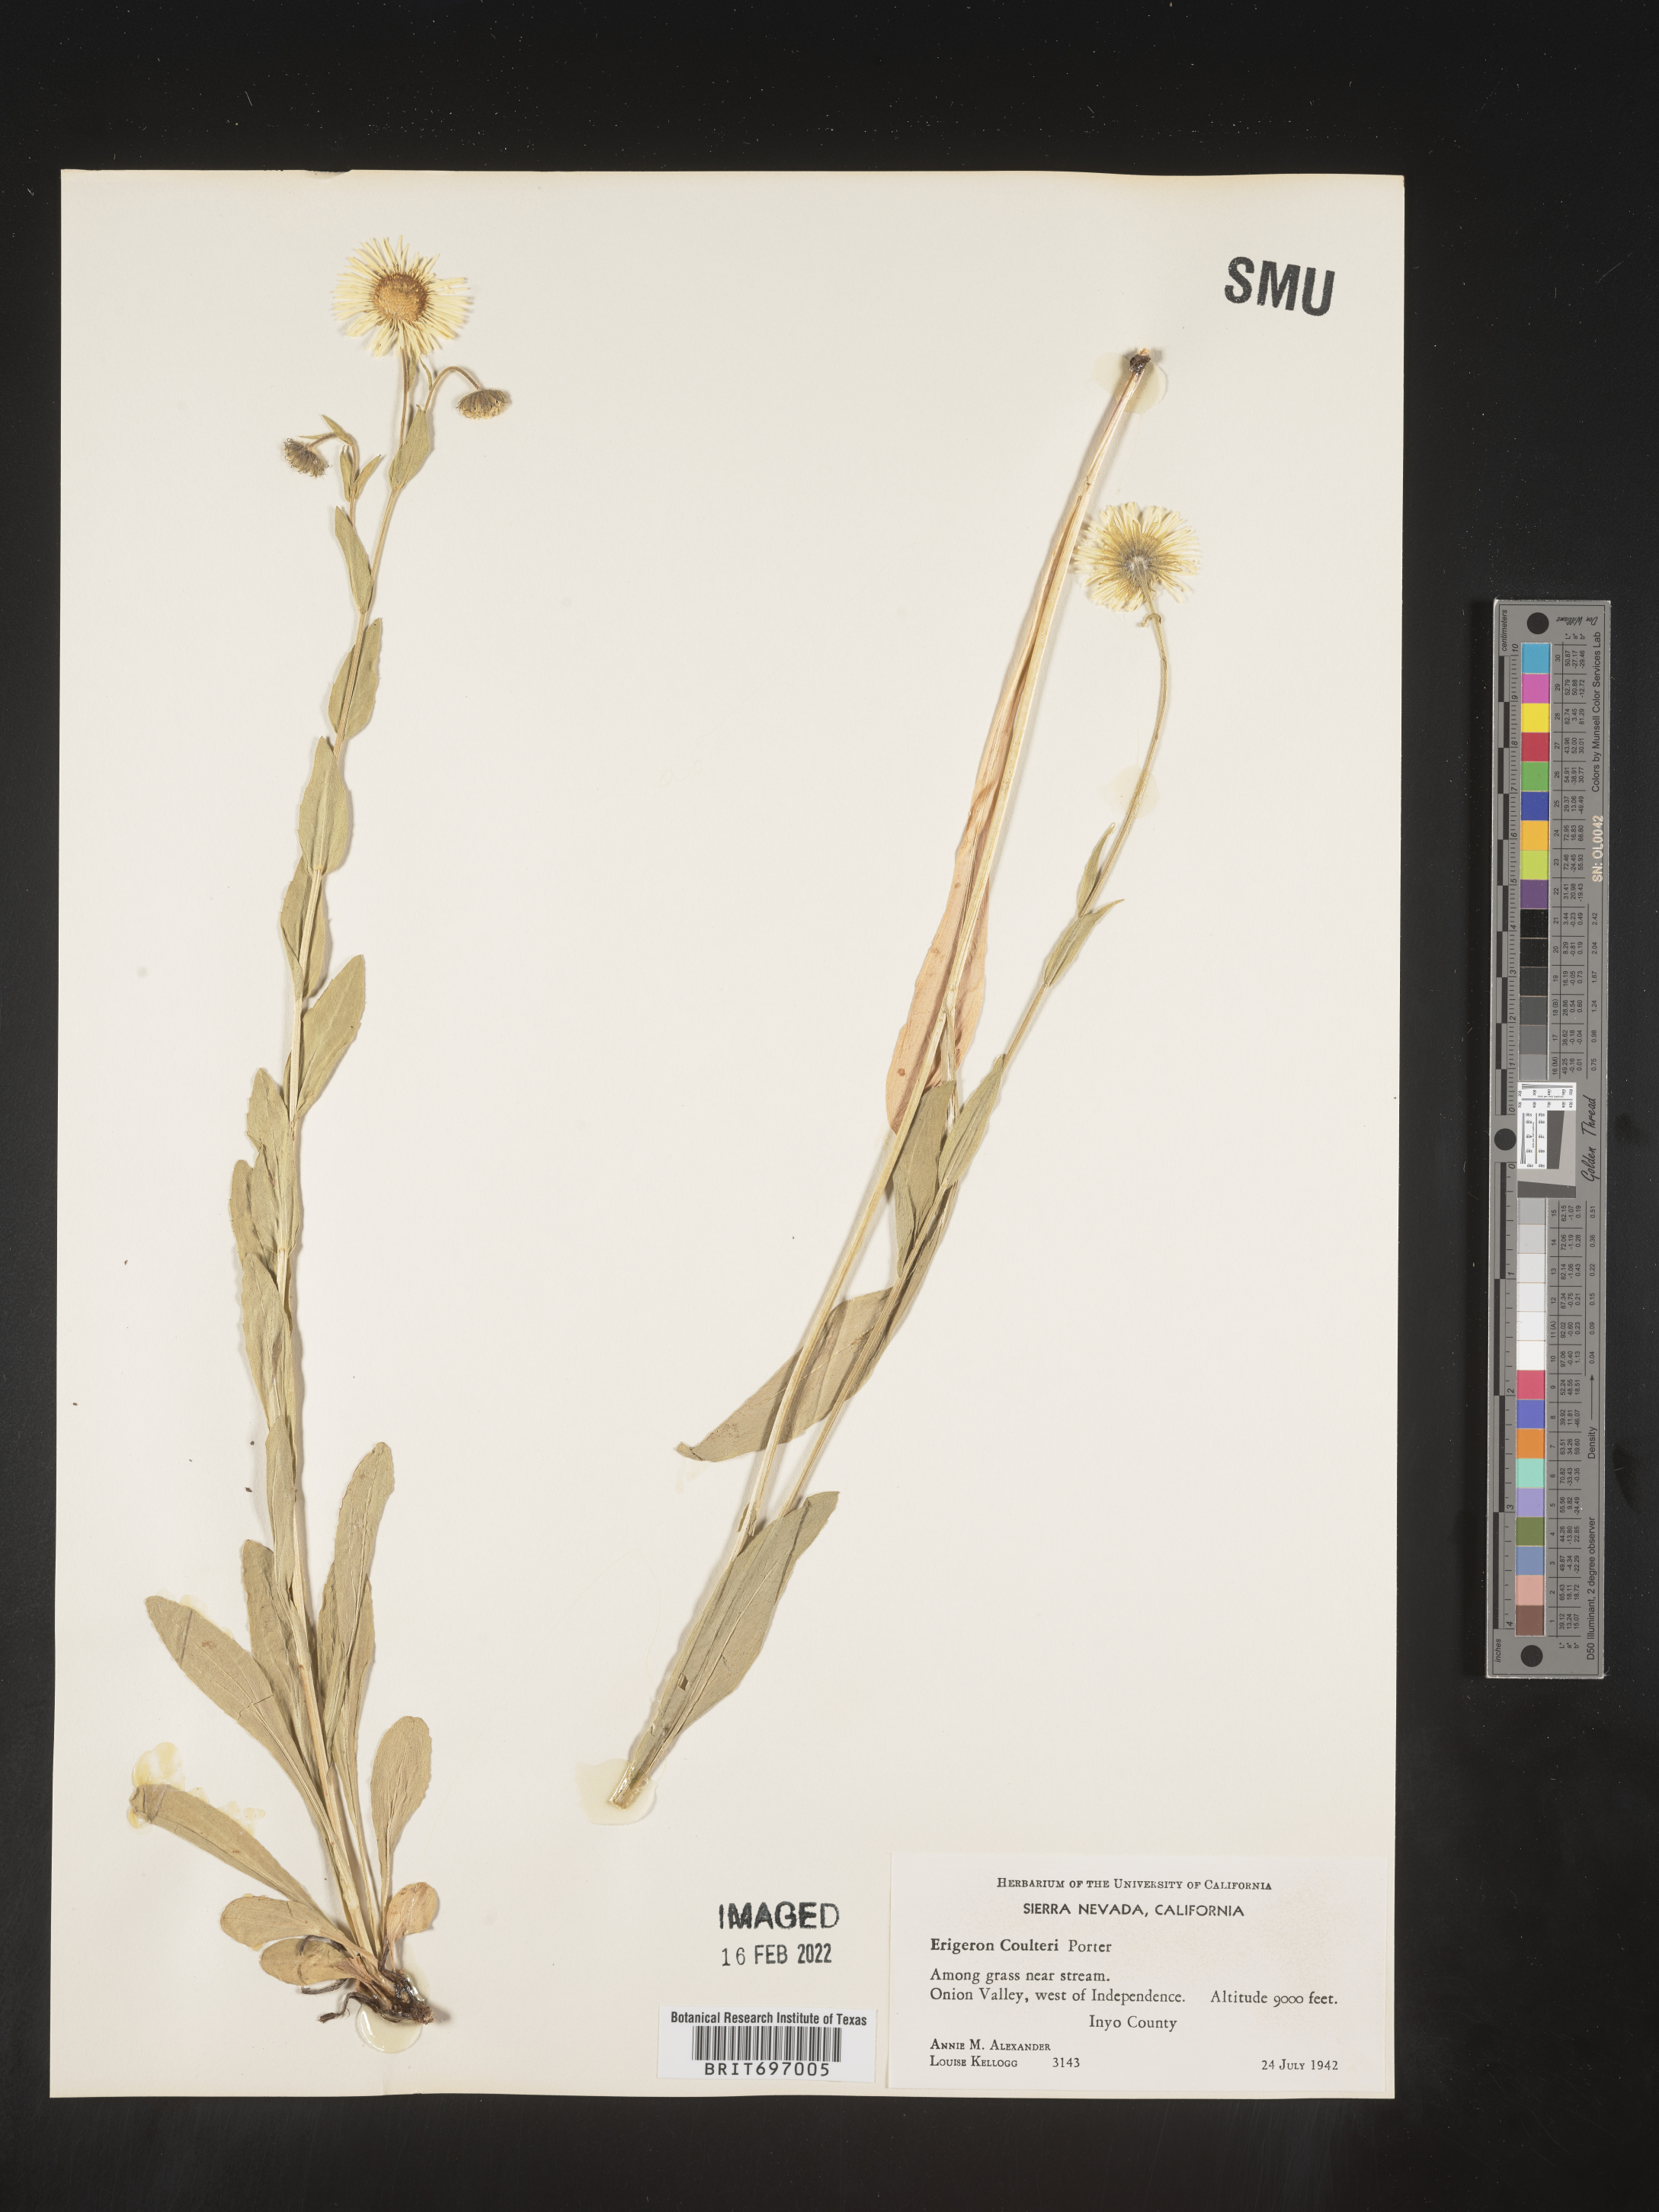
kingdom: Plantae
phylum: Tracheophyta
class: Magnoliopsida
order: Asterales
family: Asteraceae
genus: Erigeron
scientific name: Erigeron coulteri
